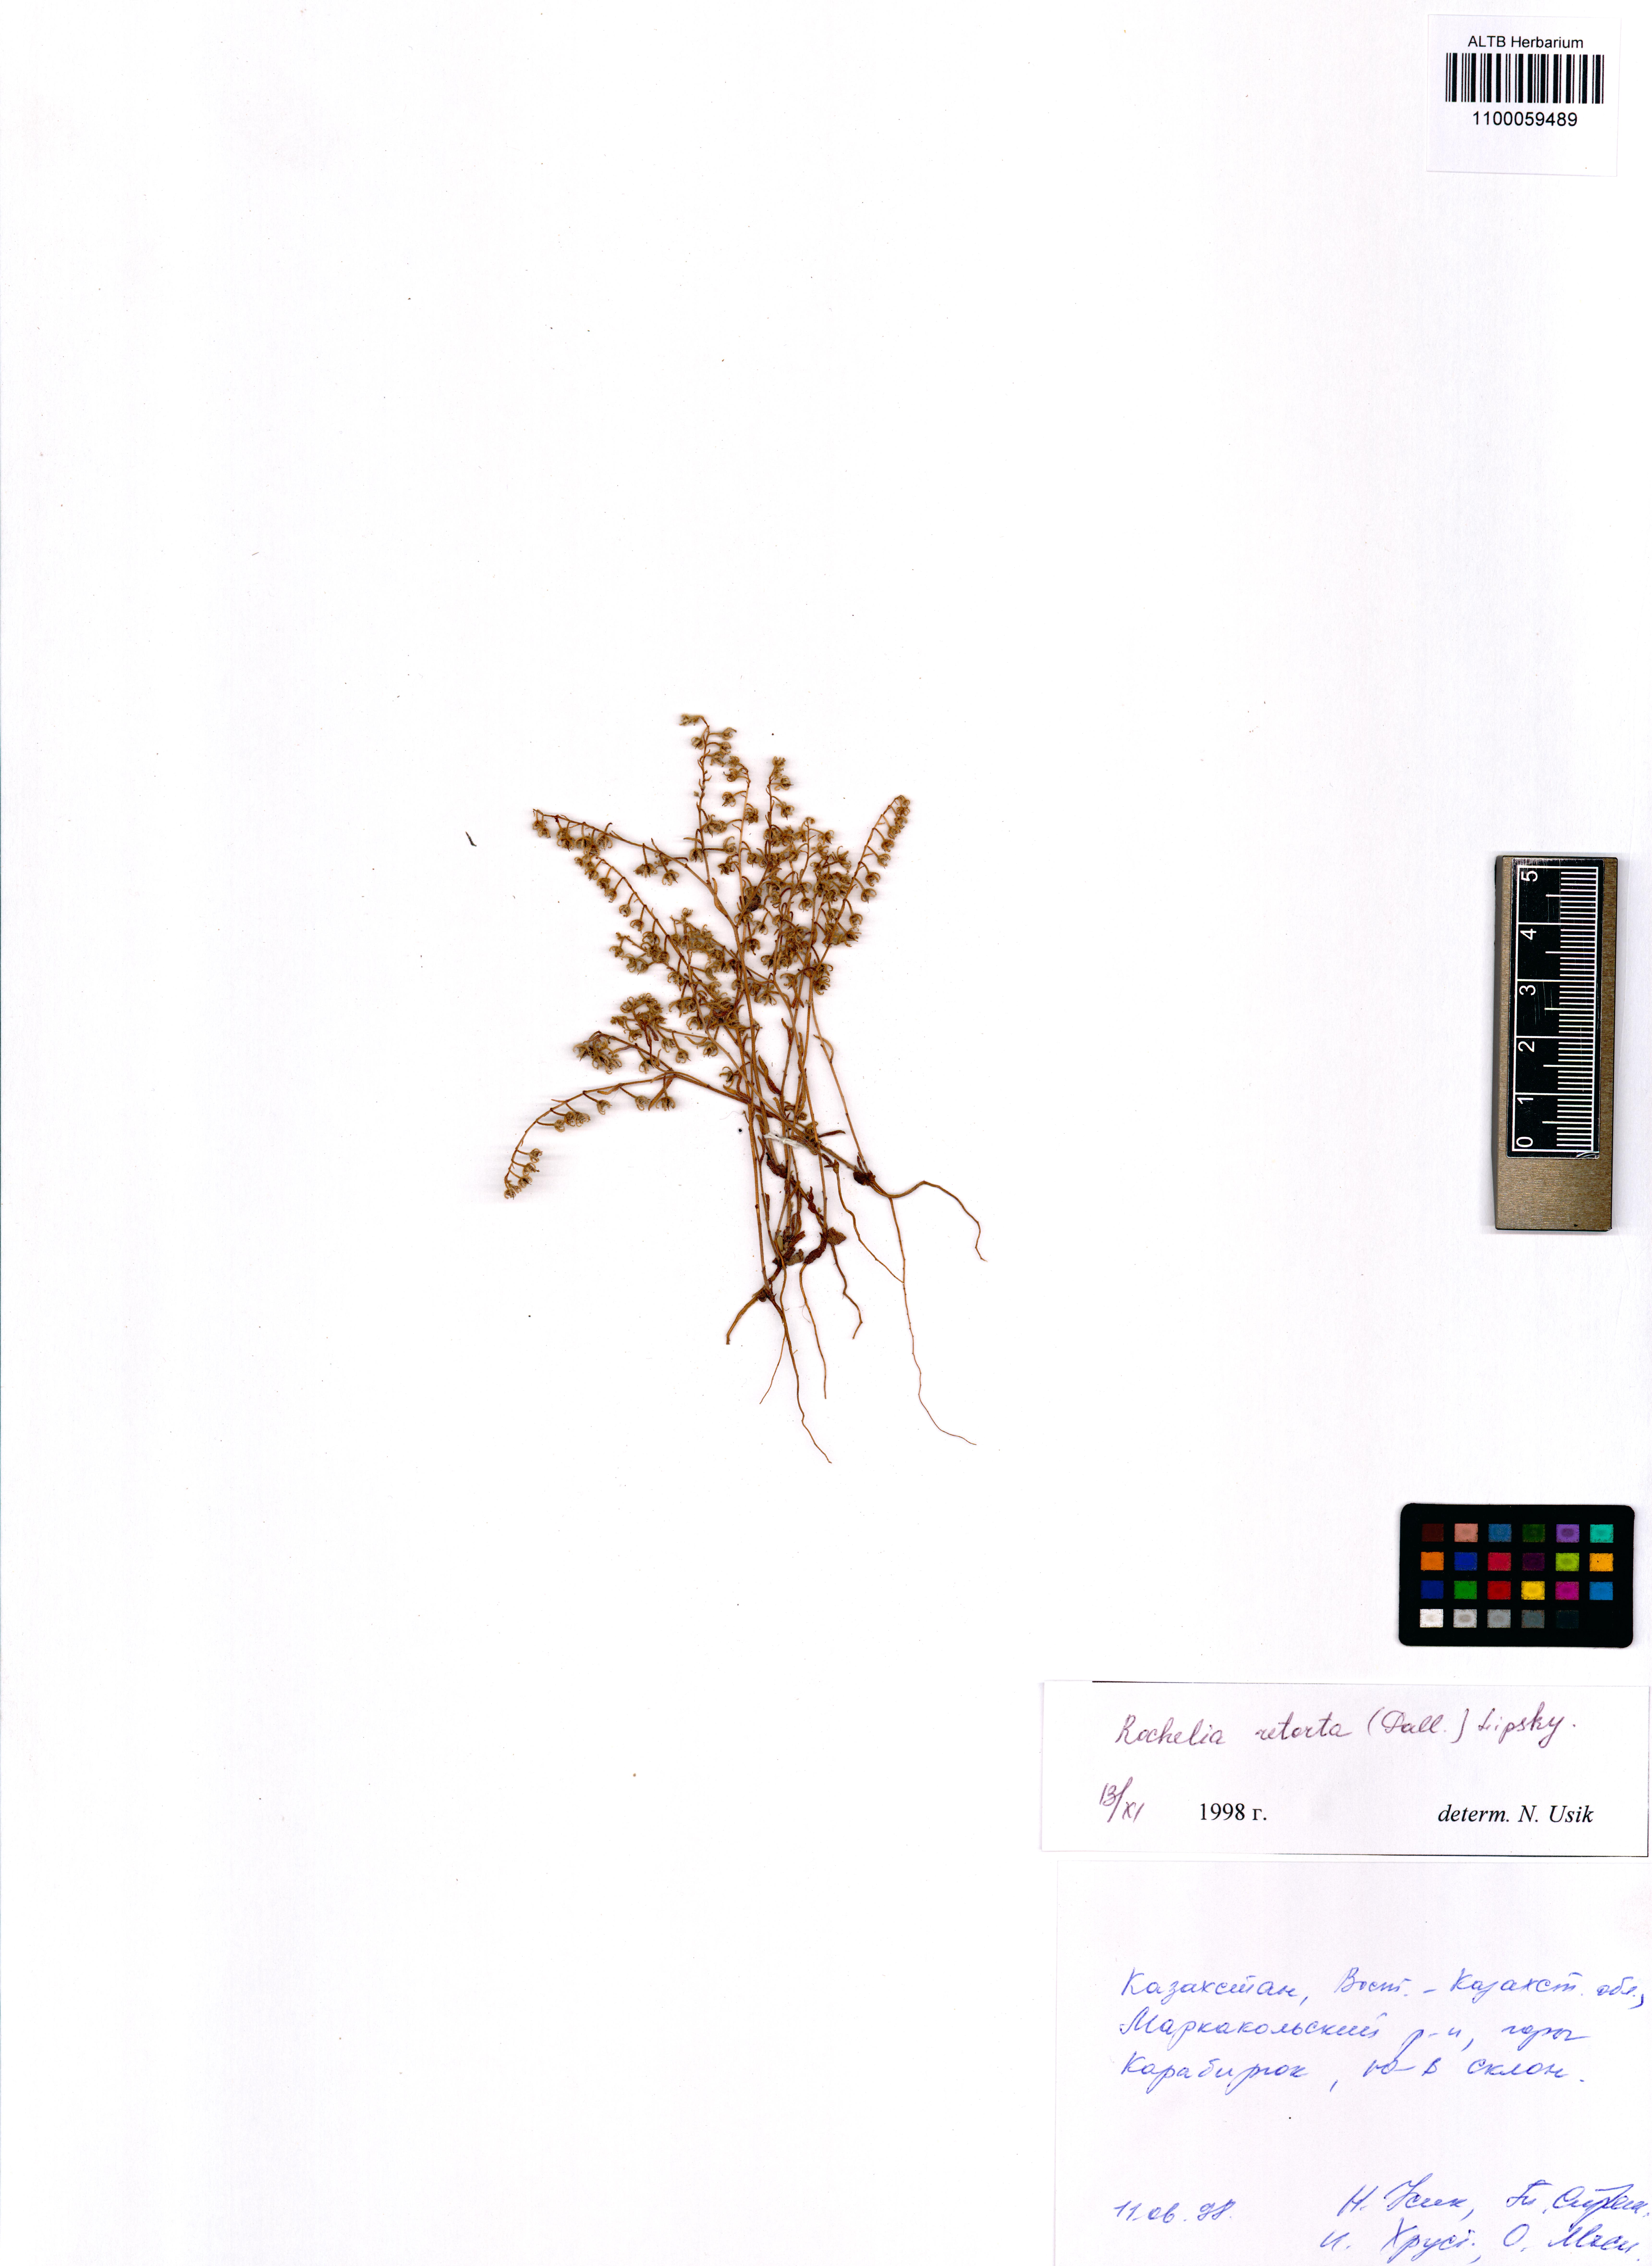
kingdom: Plantae
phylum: Tracheophyta
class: Magnoliopsida
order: Boraginales
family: Boraginaceae
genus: Rochelia
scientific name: Rochelia retorta
